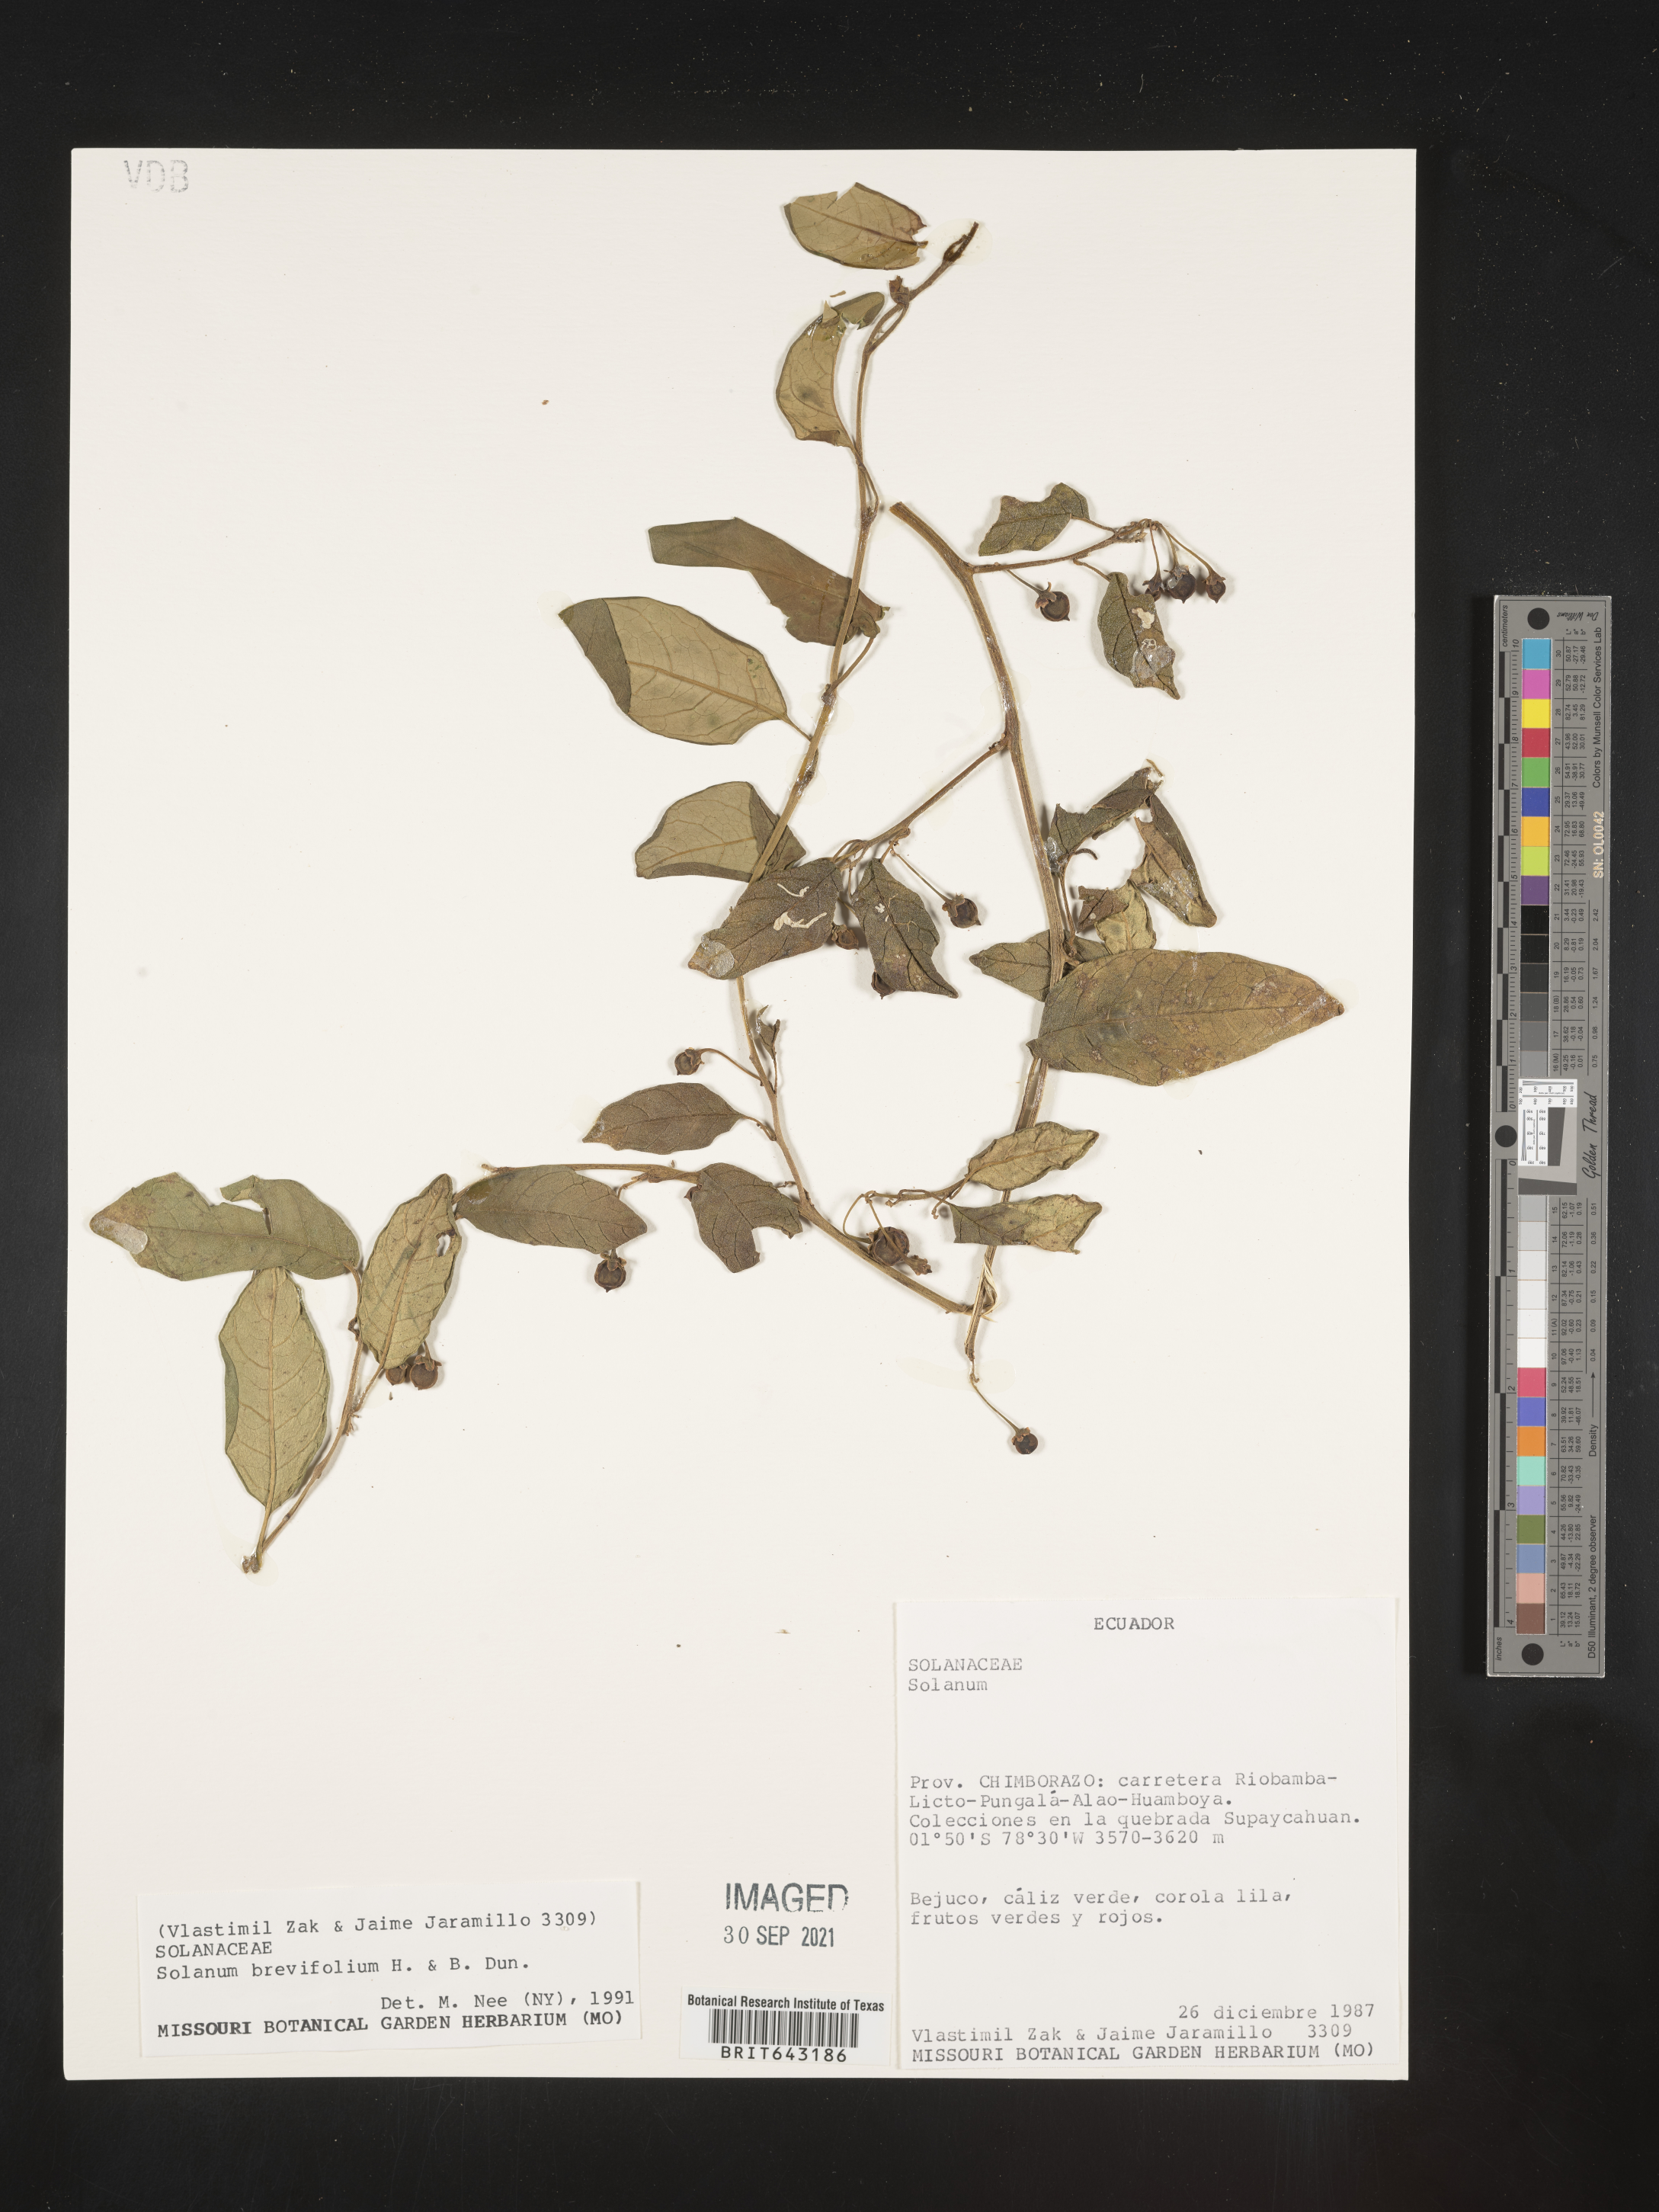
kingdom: Plantae
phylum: Tracheophyta
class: Magnoliopsida
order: Solanales
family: Solanaceae
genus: Solanum
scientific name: Solanum
